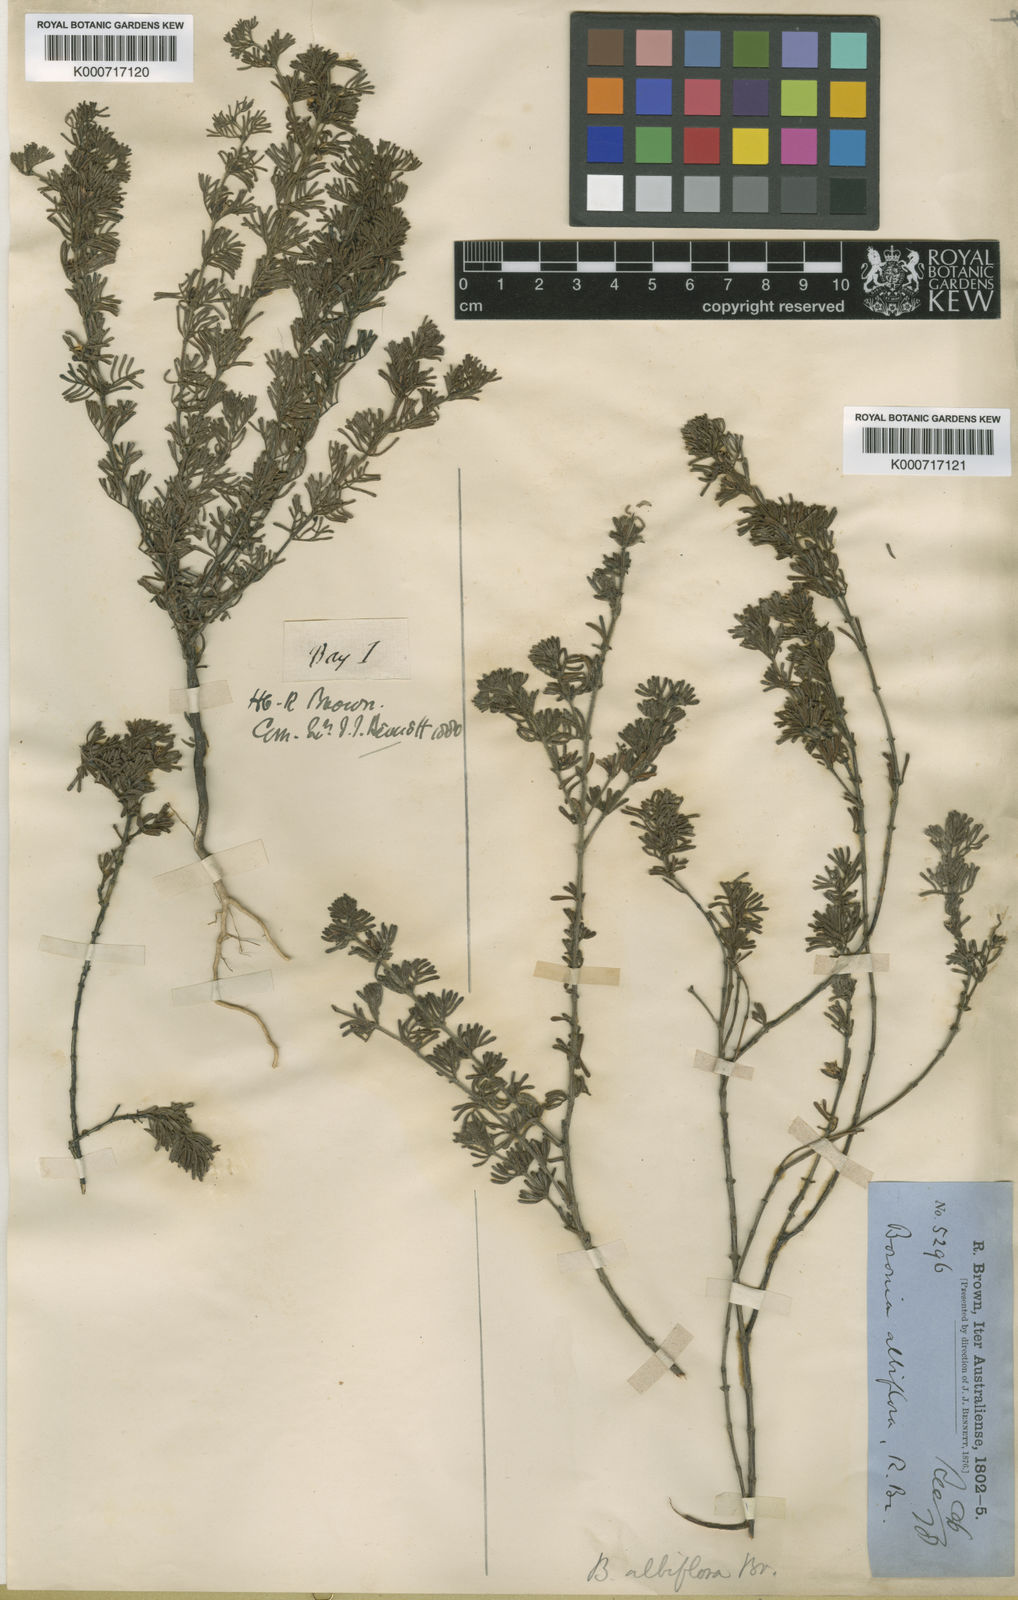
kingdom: Plantae
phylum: Tracheophyta
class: Magnoliopsida
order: Sapindales
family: Rutaceae
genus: Boronia
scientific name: Boronia albiflora
